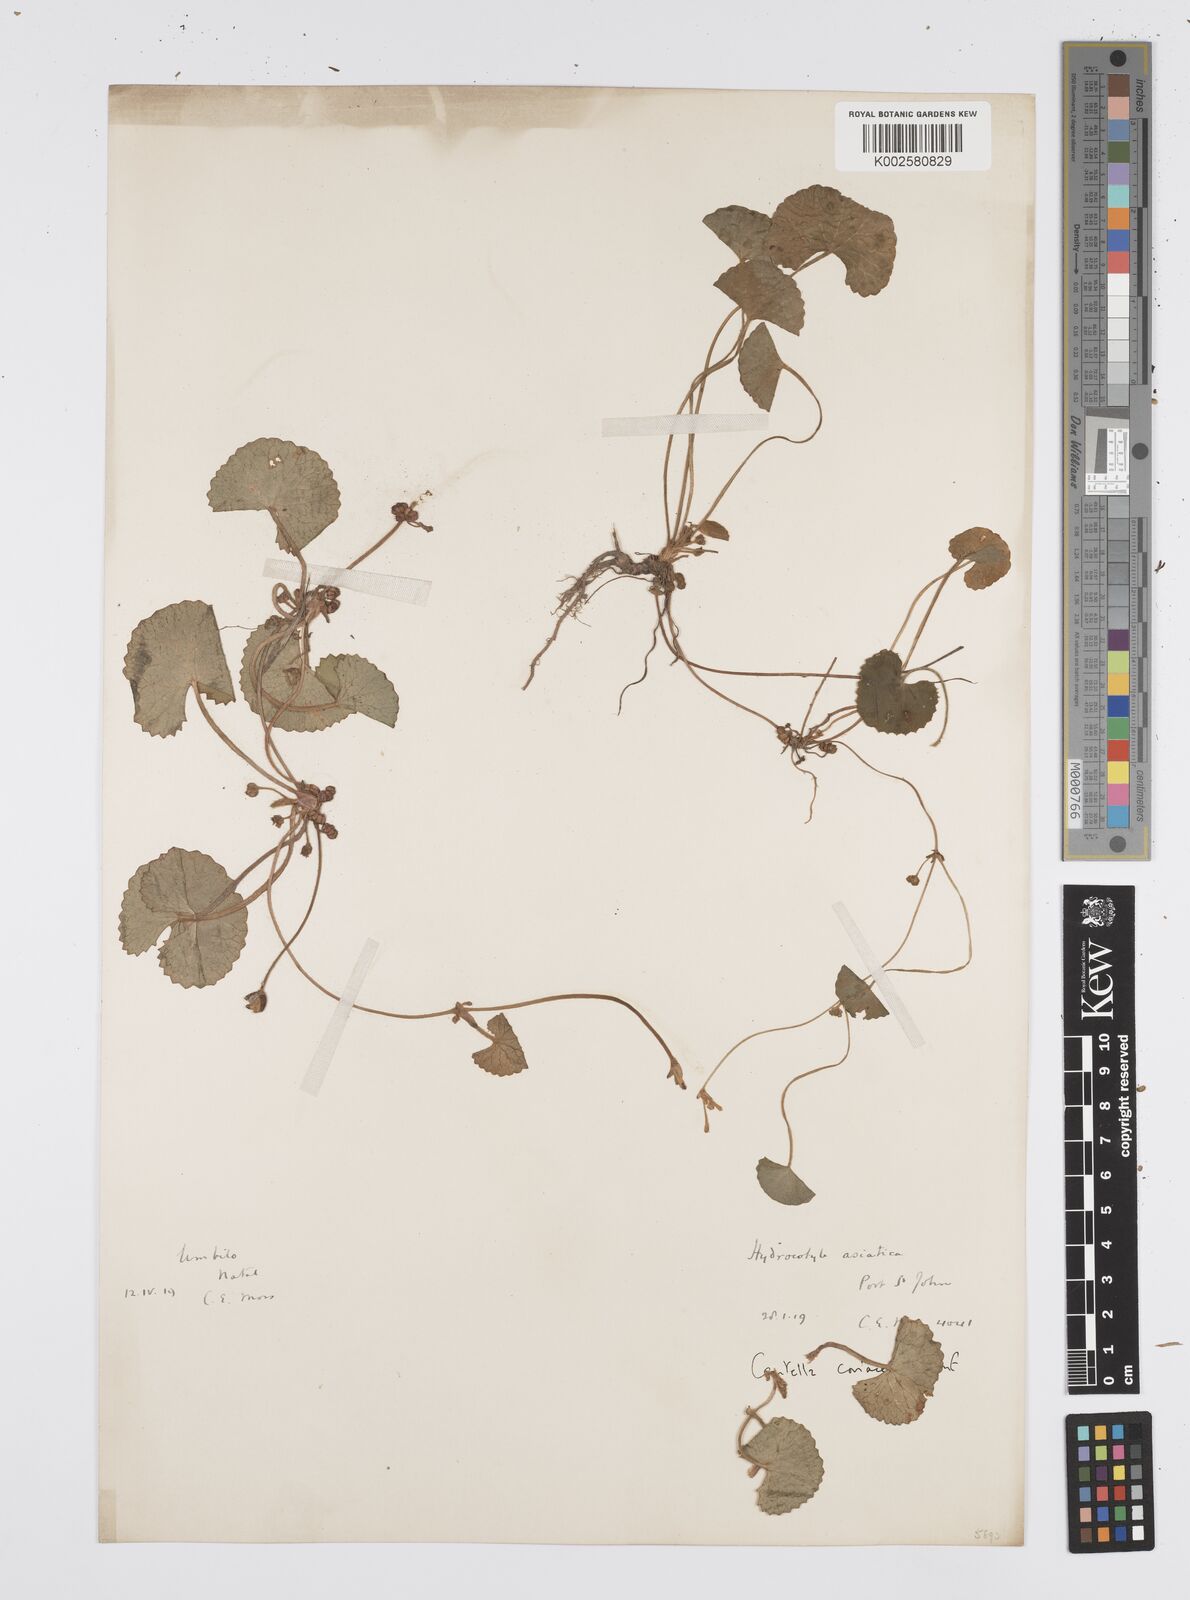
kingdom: Plantae
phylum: Tracheophyta
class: Magnoliopsida
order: Apiales
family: Apiaceae
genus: Centella
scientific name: Centella coriacea
